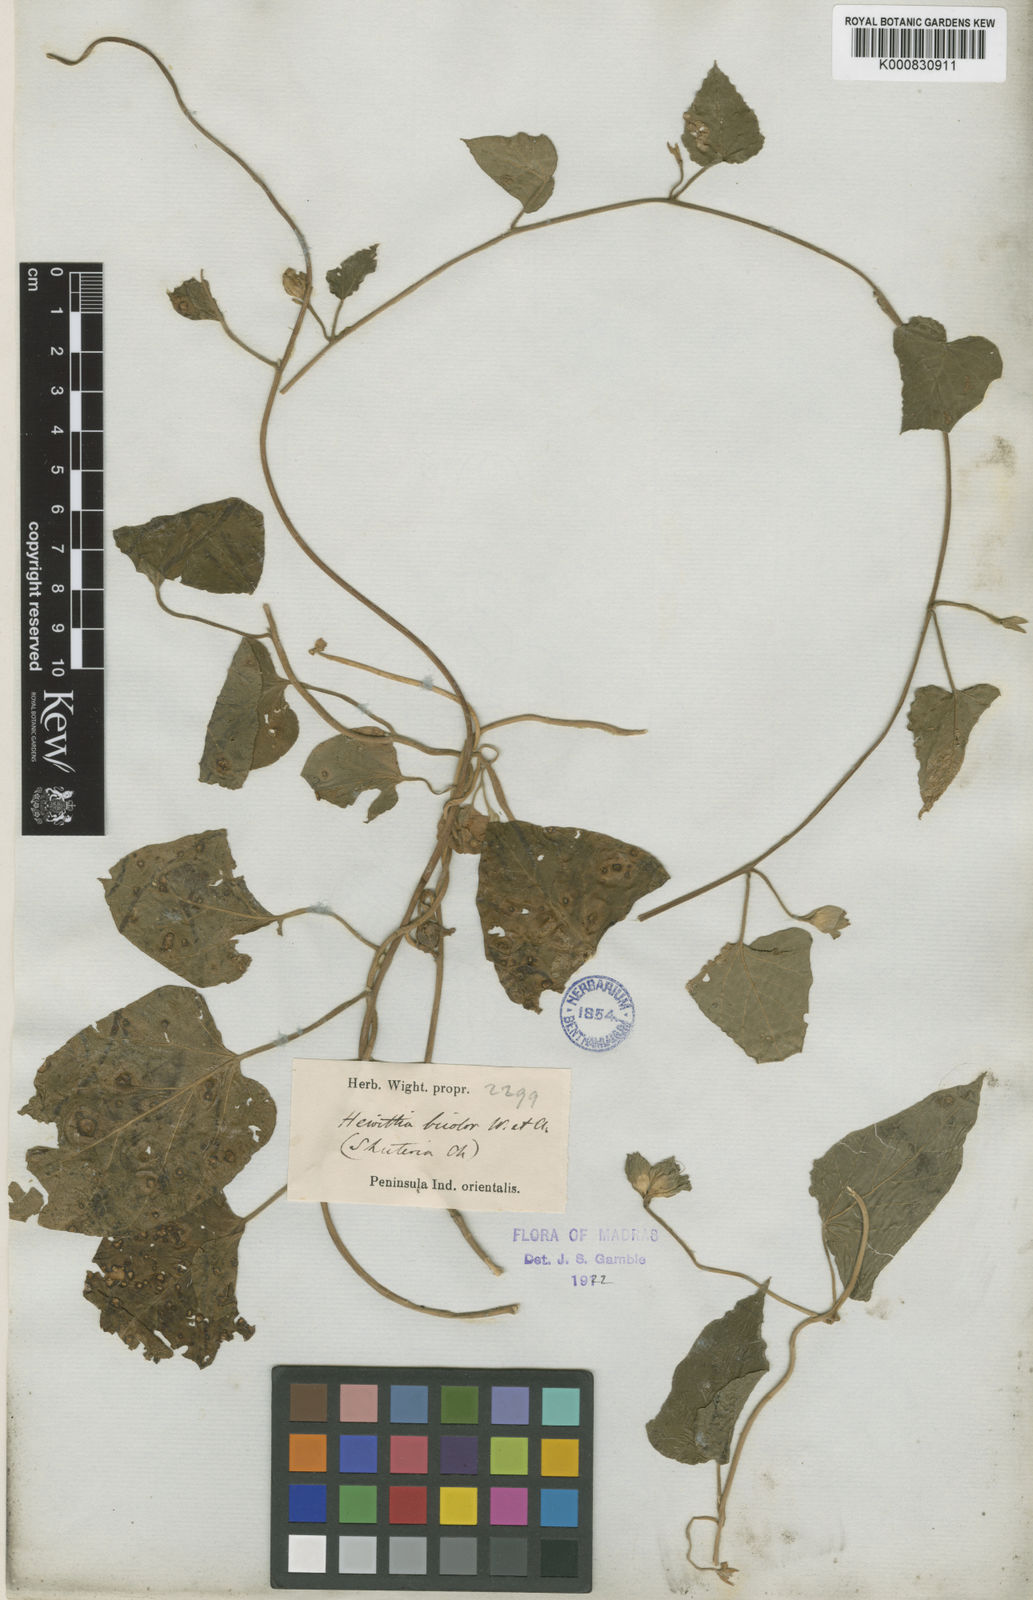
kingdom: Plantae
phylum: Tracheophyta
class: Magnoliopsida
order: Solanales
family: Convolvulaceae
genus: Hewittia
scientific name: Hewittia malabarica
